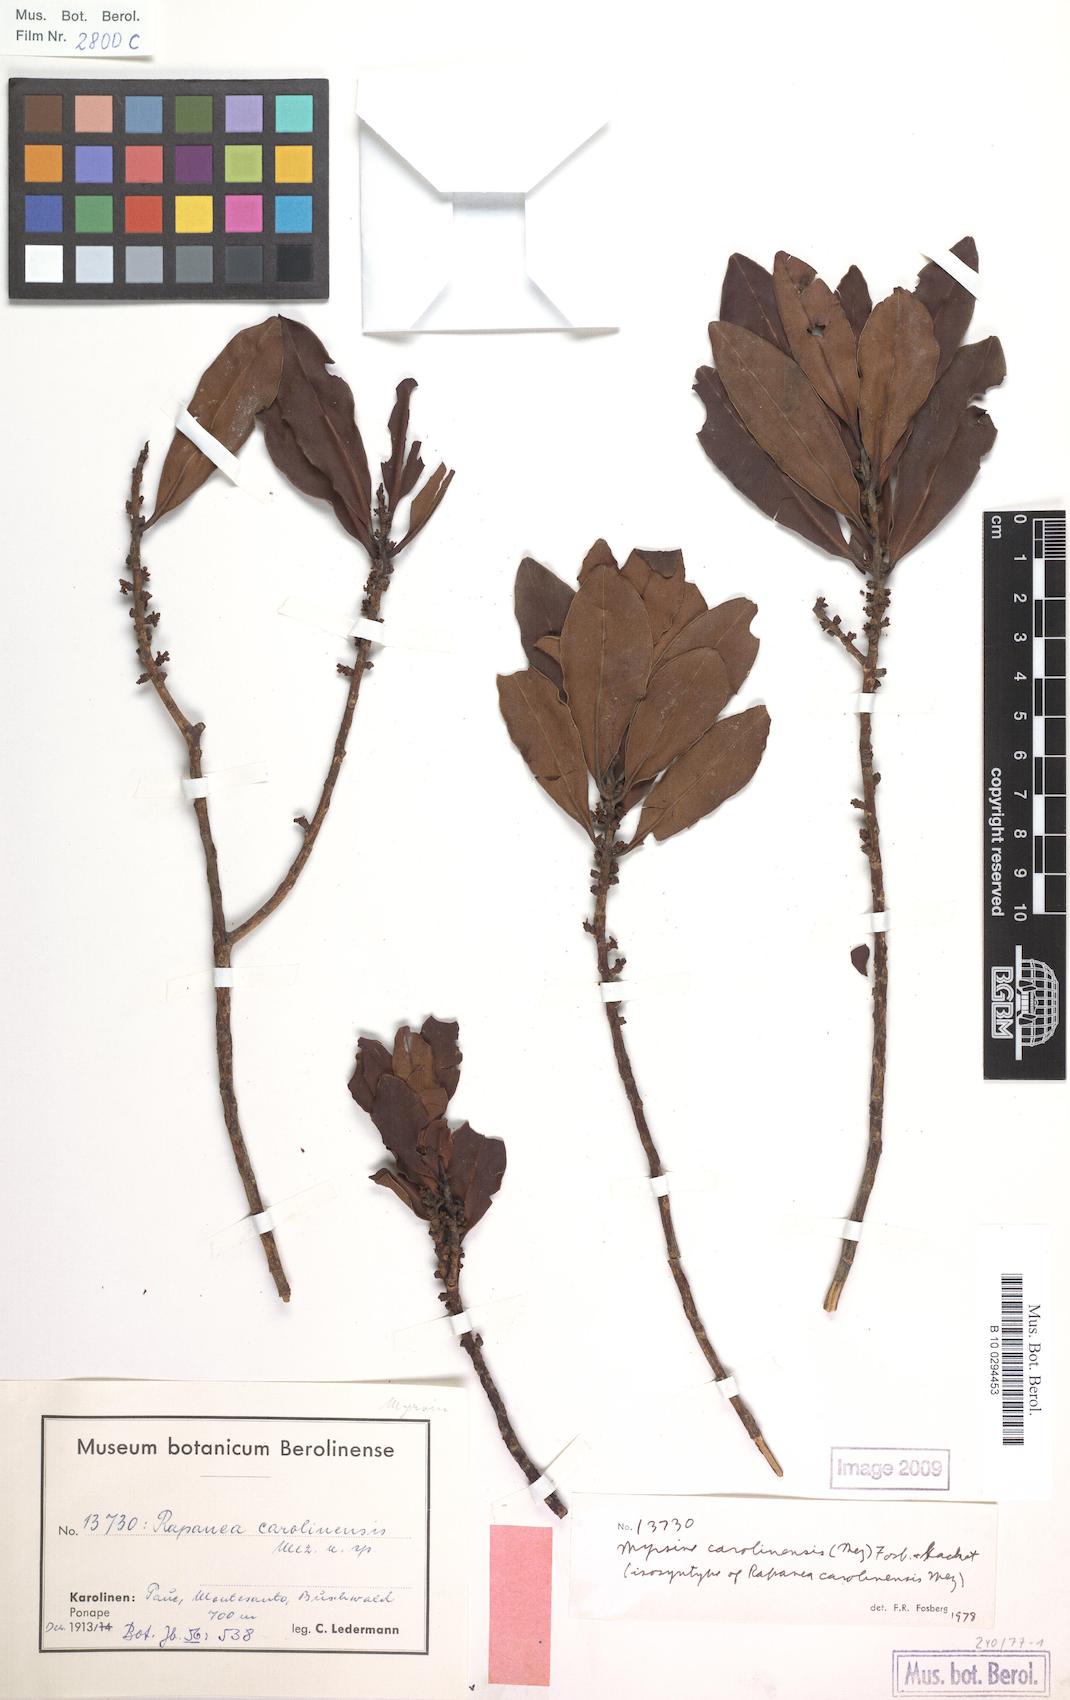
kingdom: Plantae
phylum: Tracheophyta
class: Magnoliopsida
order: Ericales
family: Primulaceae
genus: Myrsine
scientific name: Myrsine carolinensis
